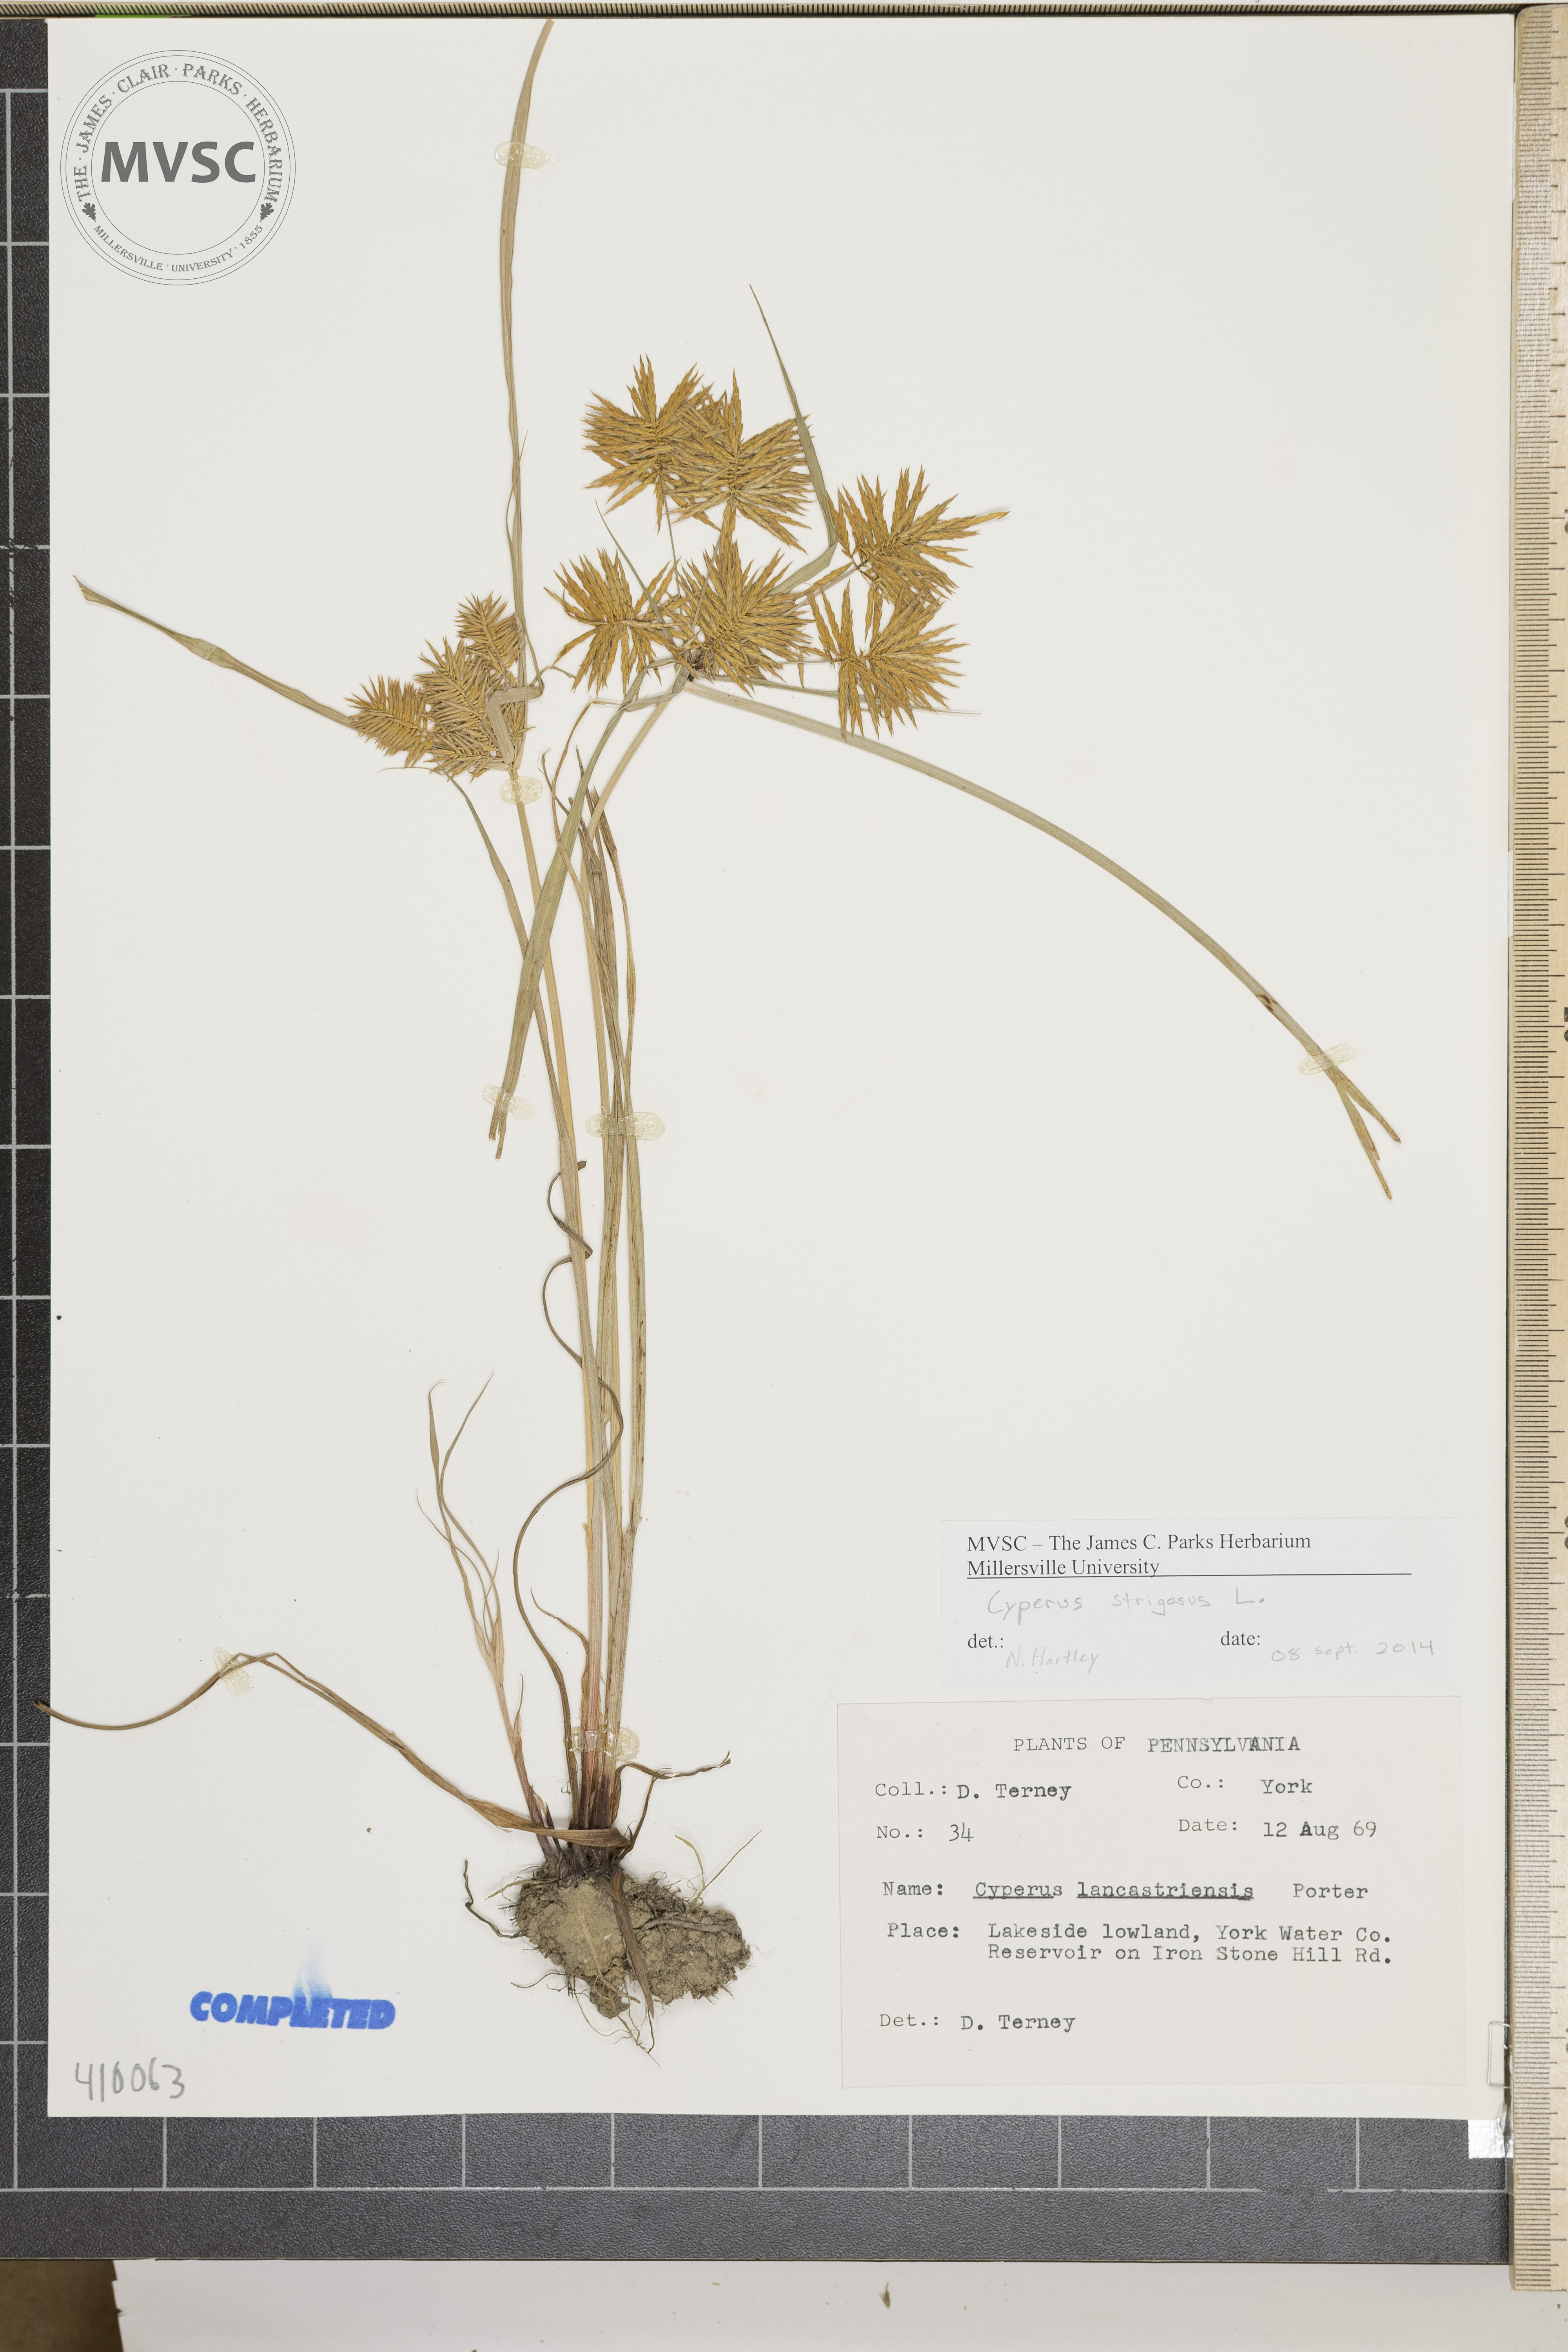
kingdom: Plantae
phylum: Tracheophyta
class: Liliopsida
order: Poales
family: Cyperaceae
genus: Cyperus
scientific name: Cyperus strigosus
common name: straw-colored flatsedge
